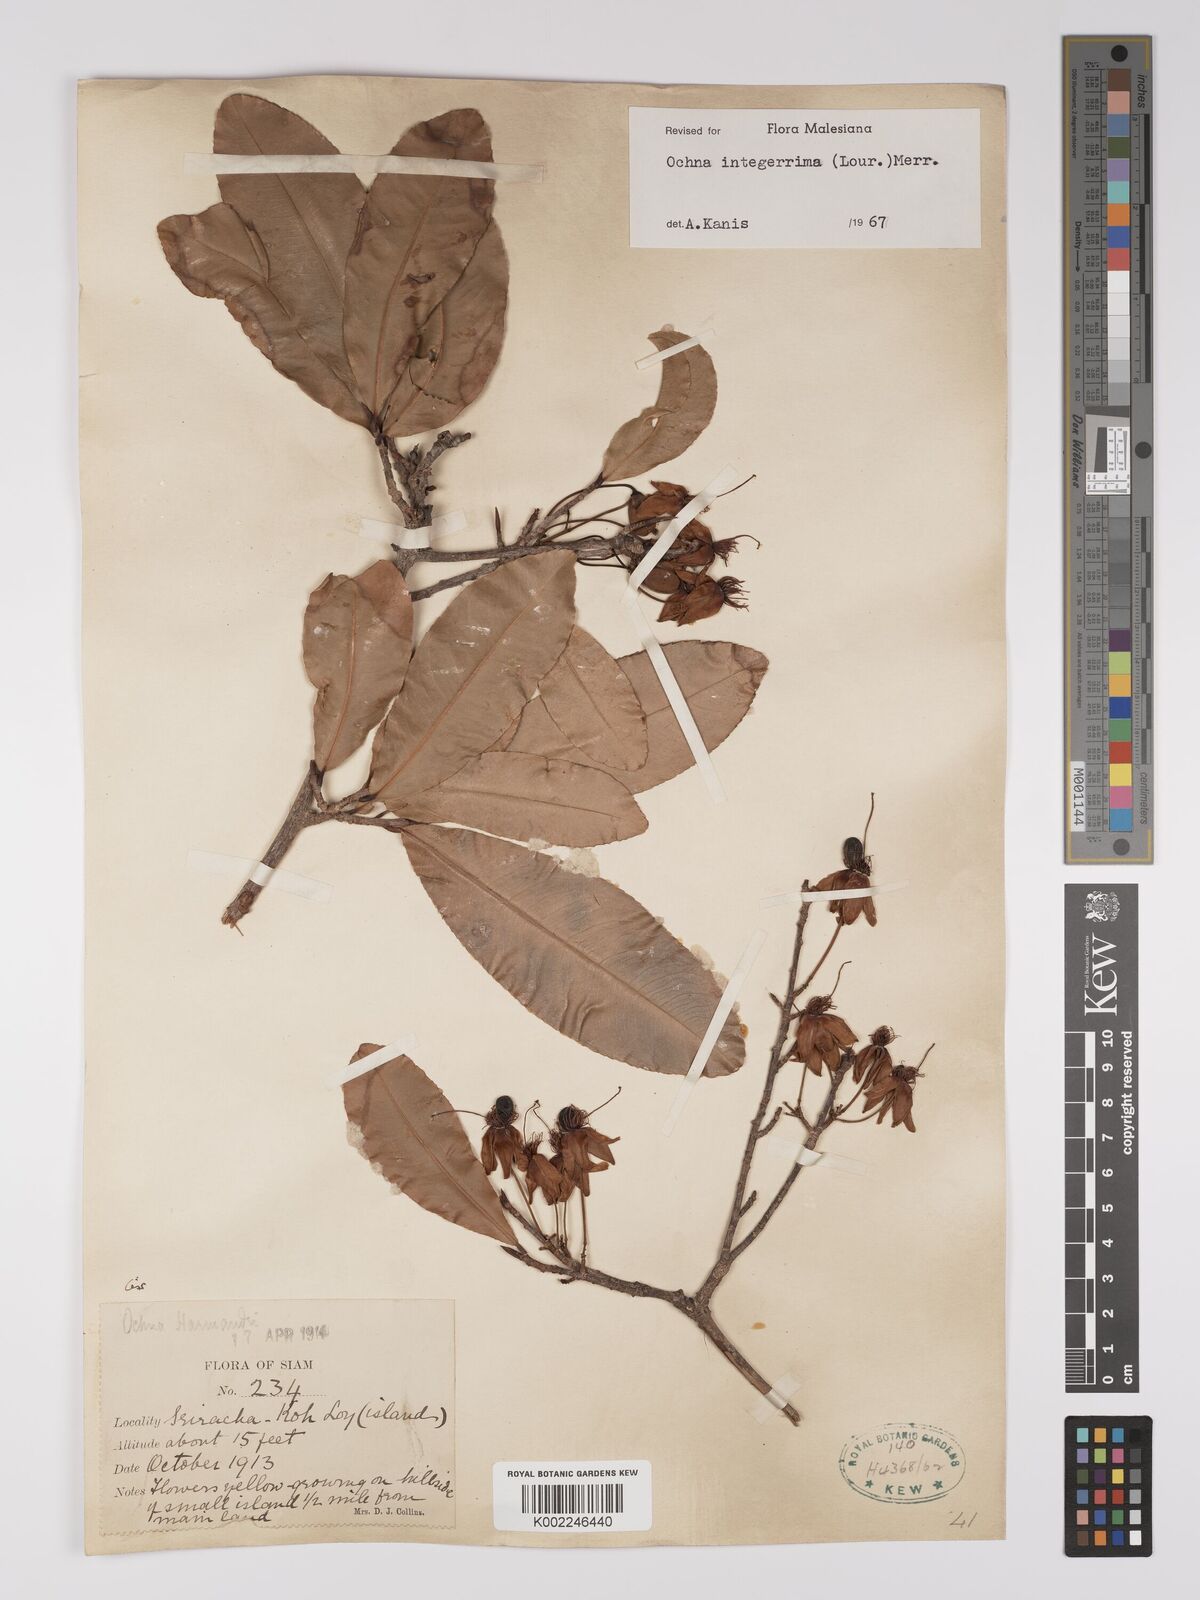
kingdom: Plantae
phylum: Tracheophyta
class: Magnoliopsida
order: Malpighiales
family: Ochnaceae
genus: Ochna
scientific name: Ochna integerrima
